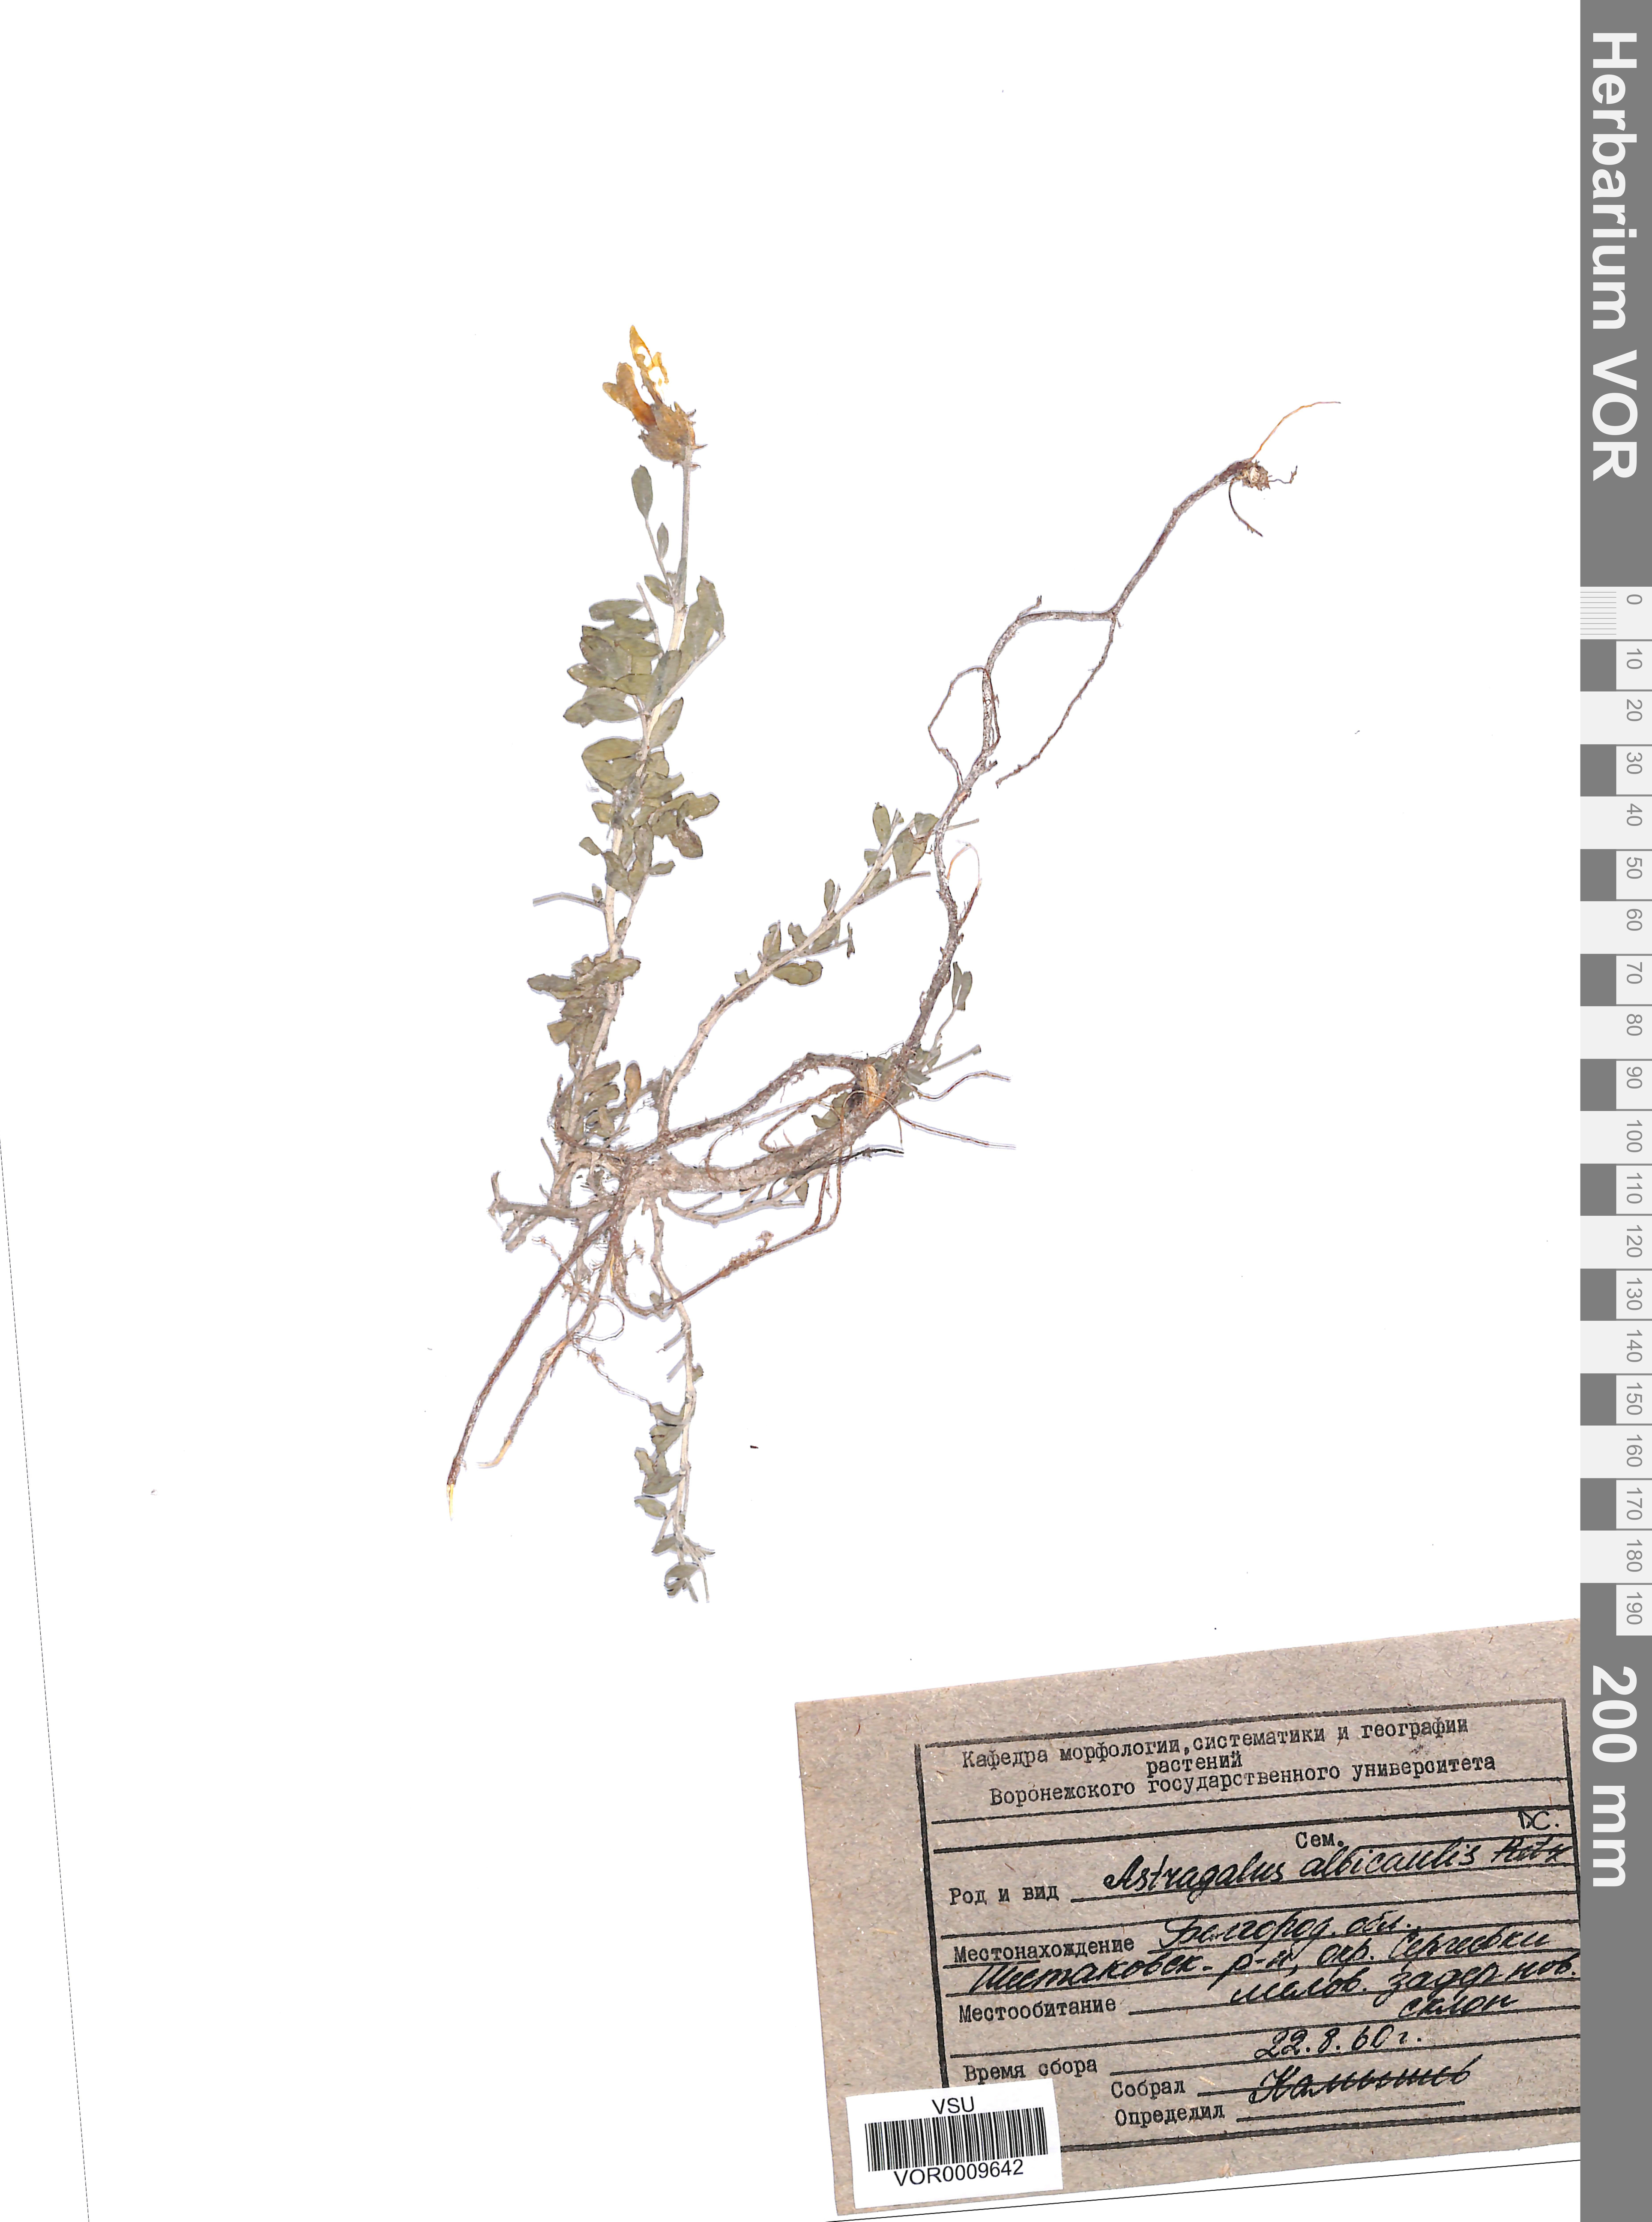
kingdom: Plantae
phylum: Tracheophyta
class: Magnoliopsida
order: Fabales
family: Fabaceae
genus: Astragalus
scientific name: Astragalus albicaulis
